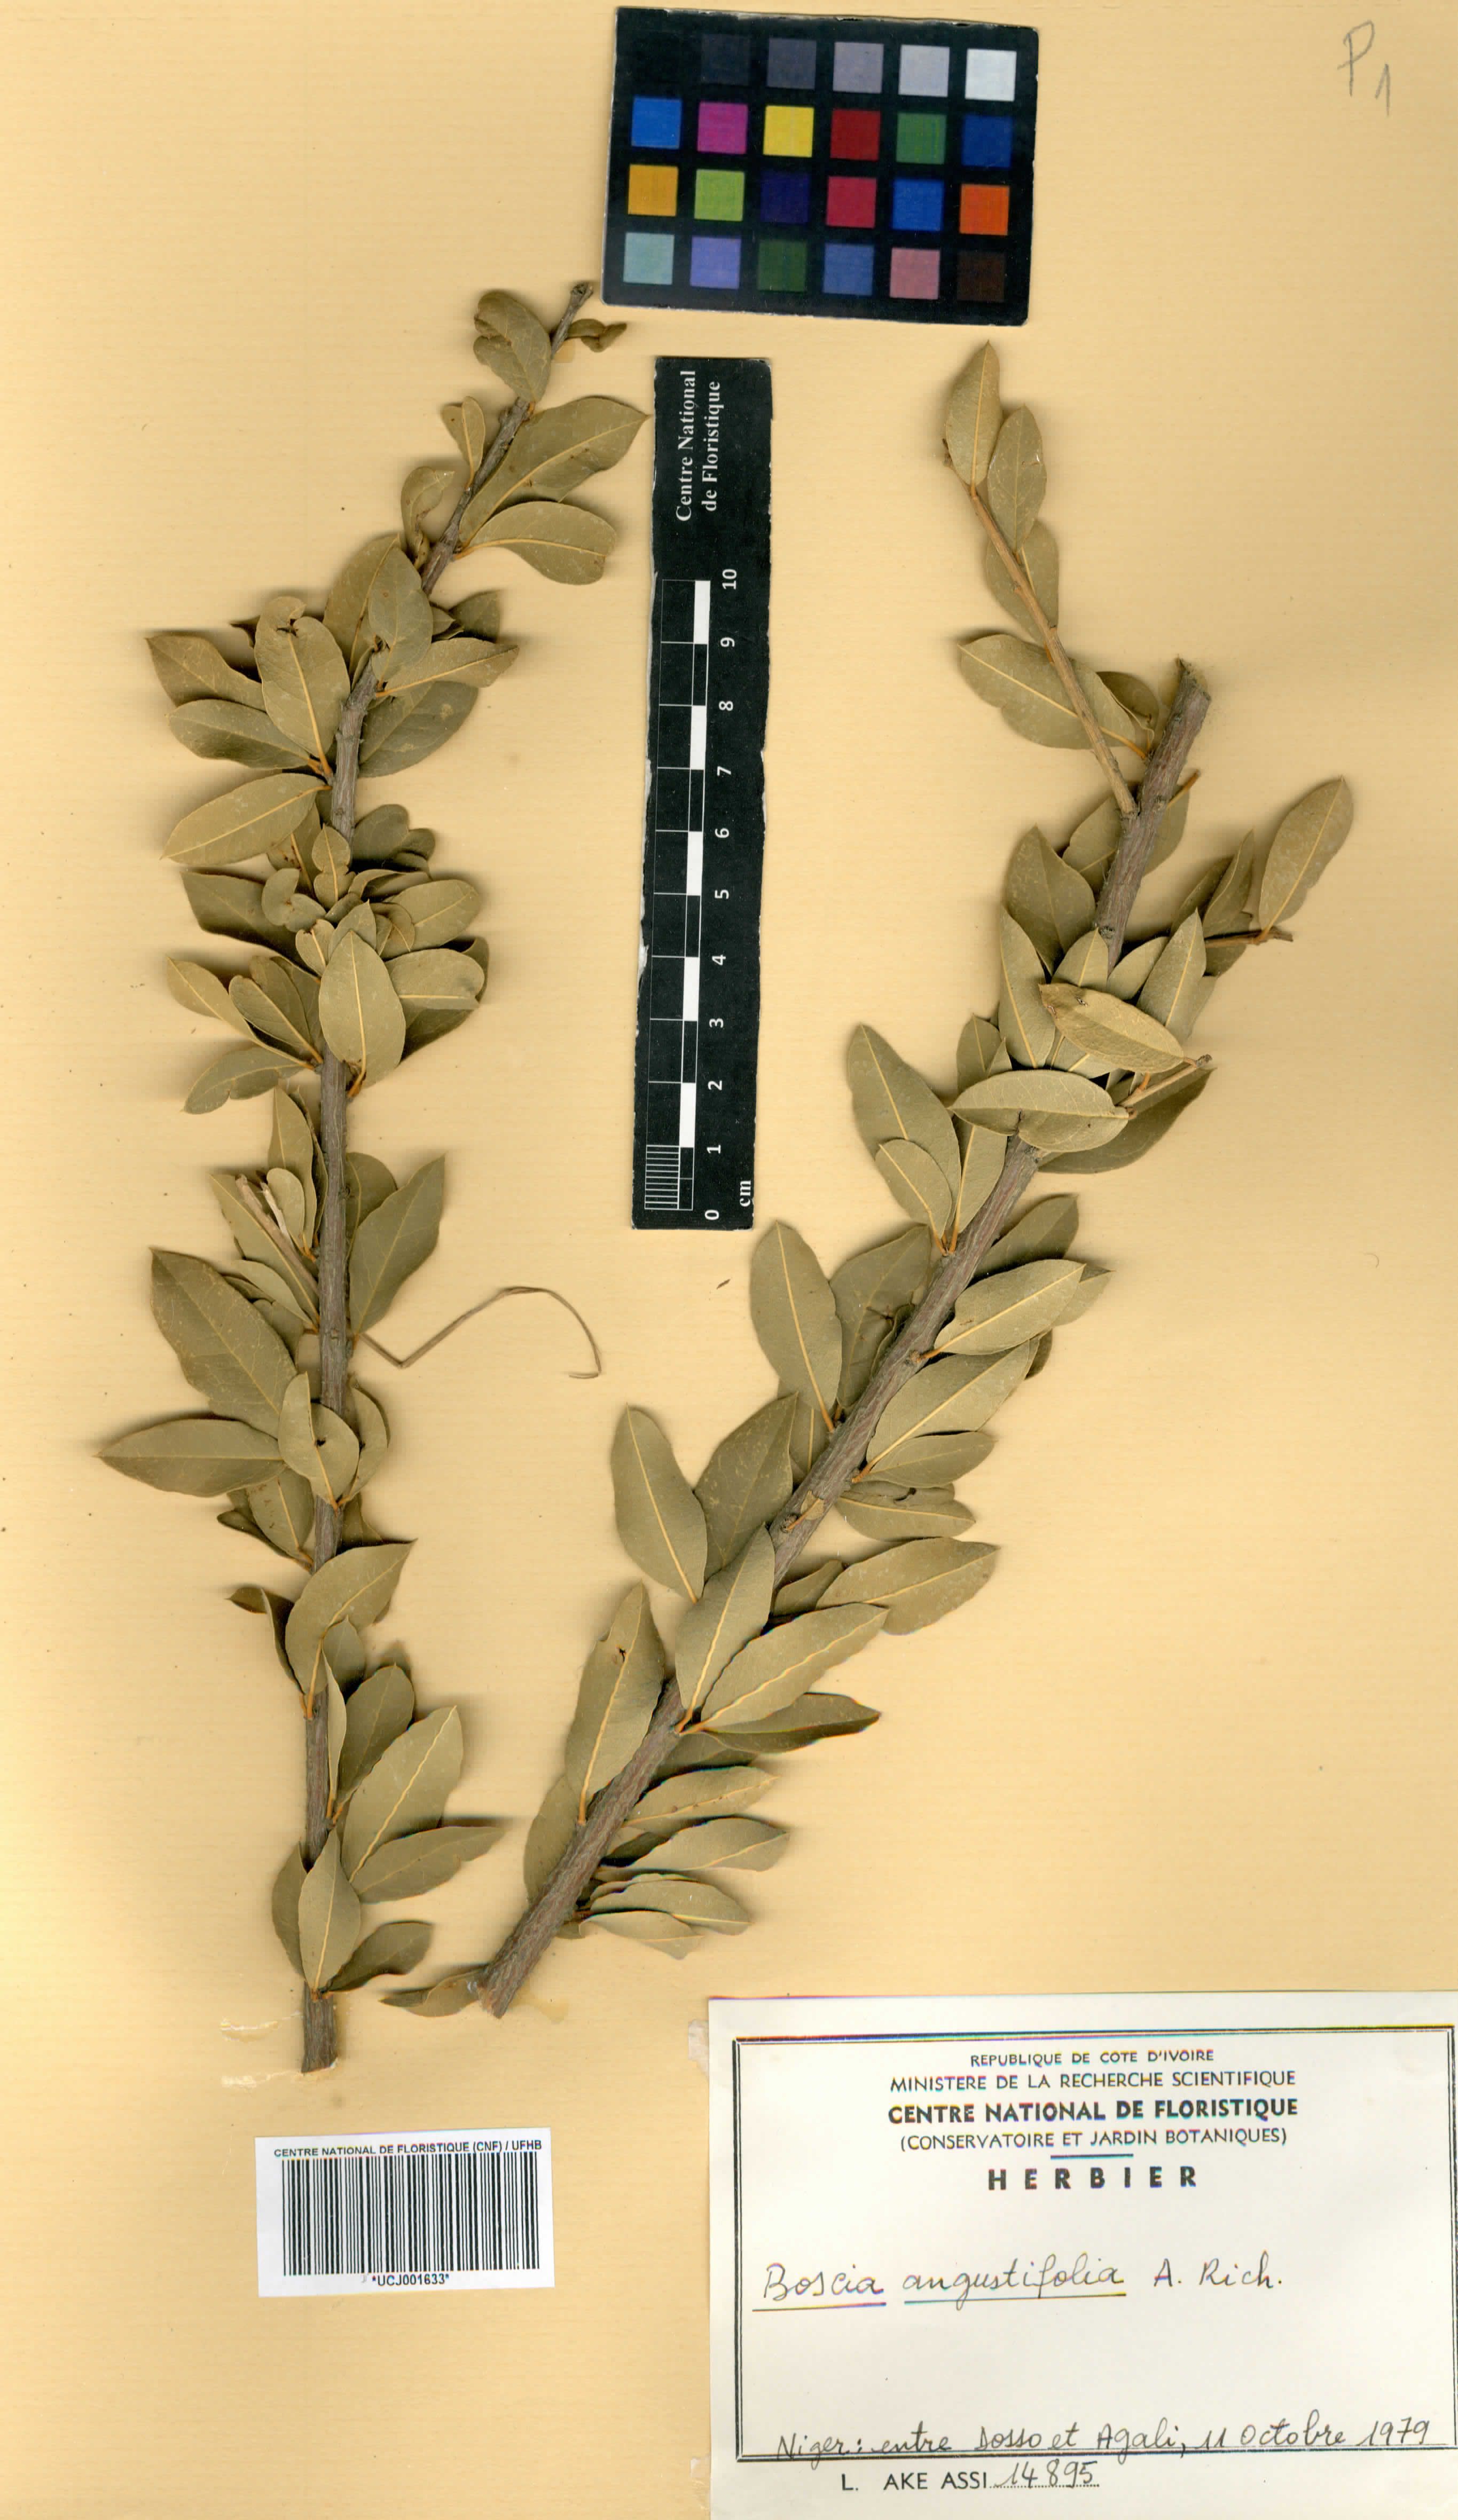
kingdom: Plantae
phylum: Tracheophyta
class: Magnoliopsida
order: Brassicales
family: Capparaceae
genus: Boscia
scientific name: Boscia angustifolia
